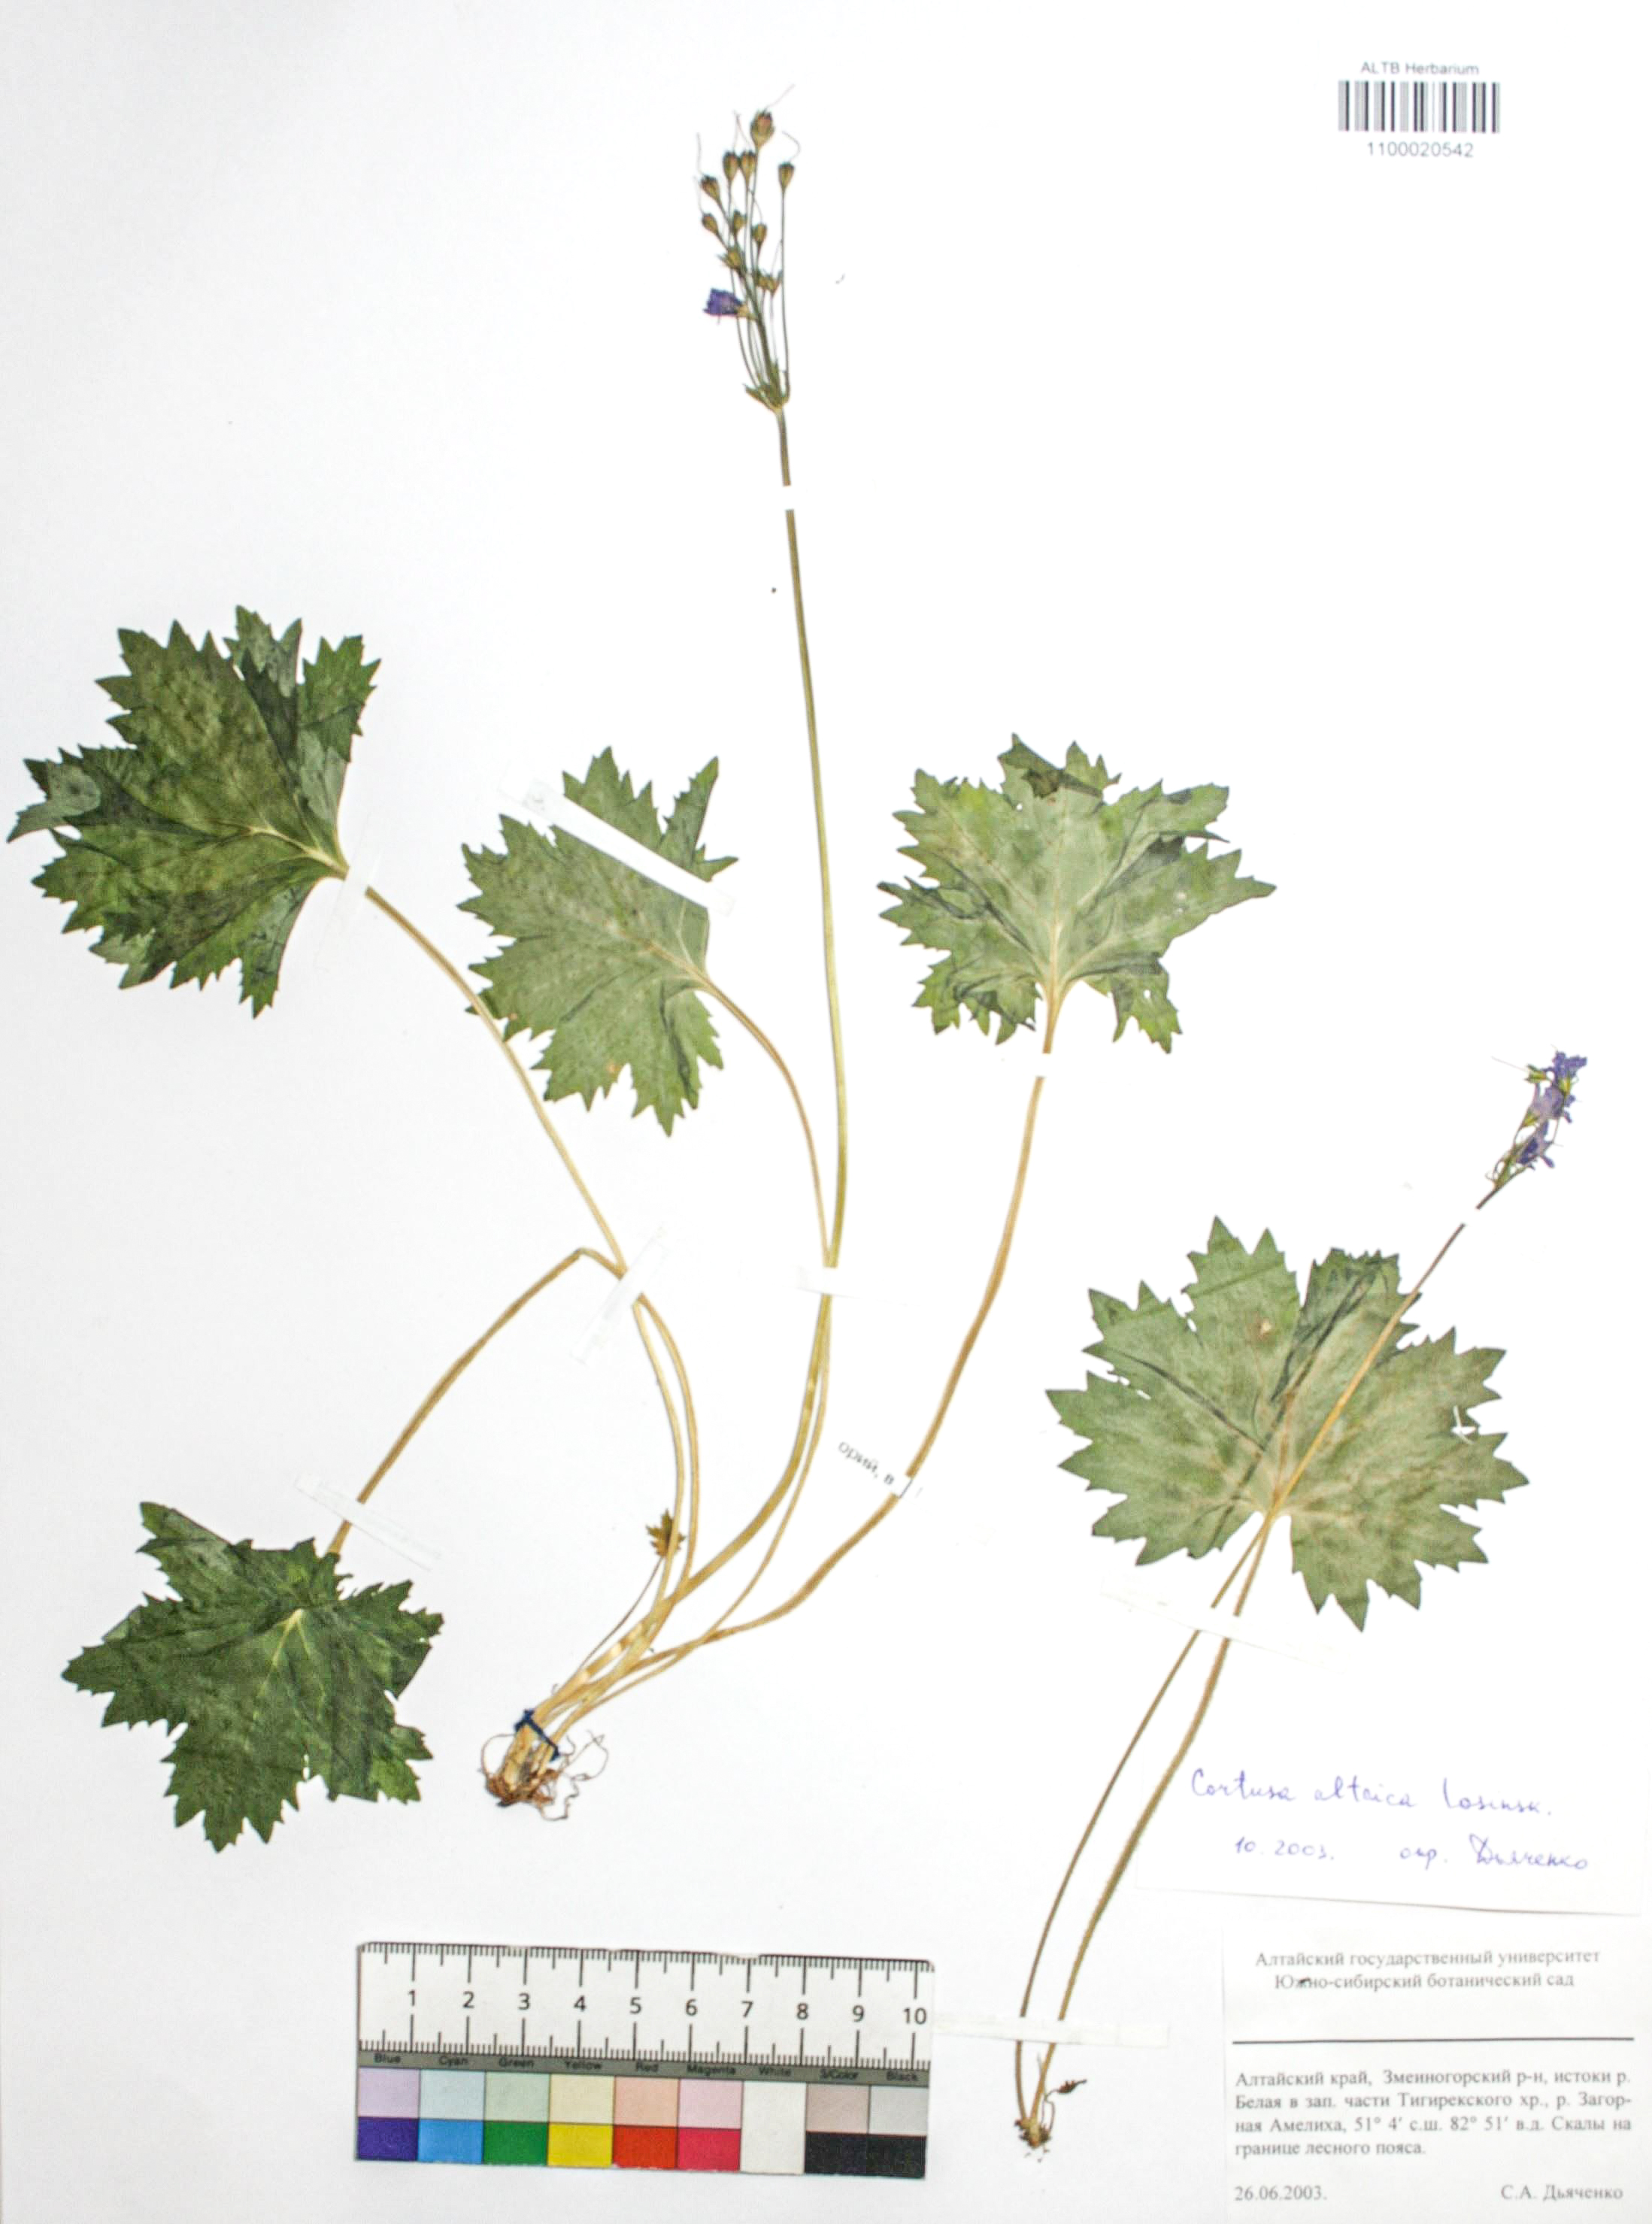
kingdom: Plantae
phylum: Tracheophyta
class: Magnoliopsida
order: Ericales
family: Primulaceae
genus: Primula
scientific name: Primula matthioli
